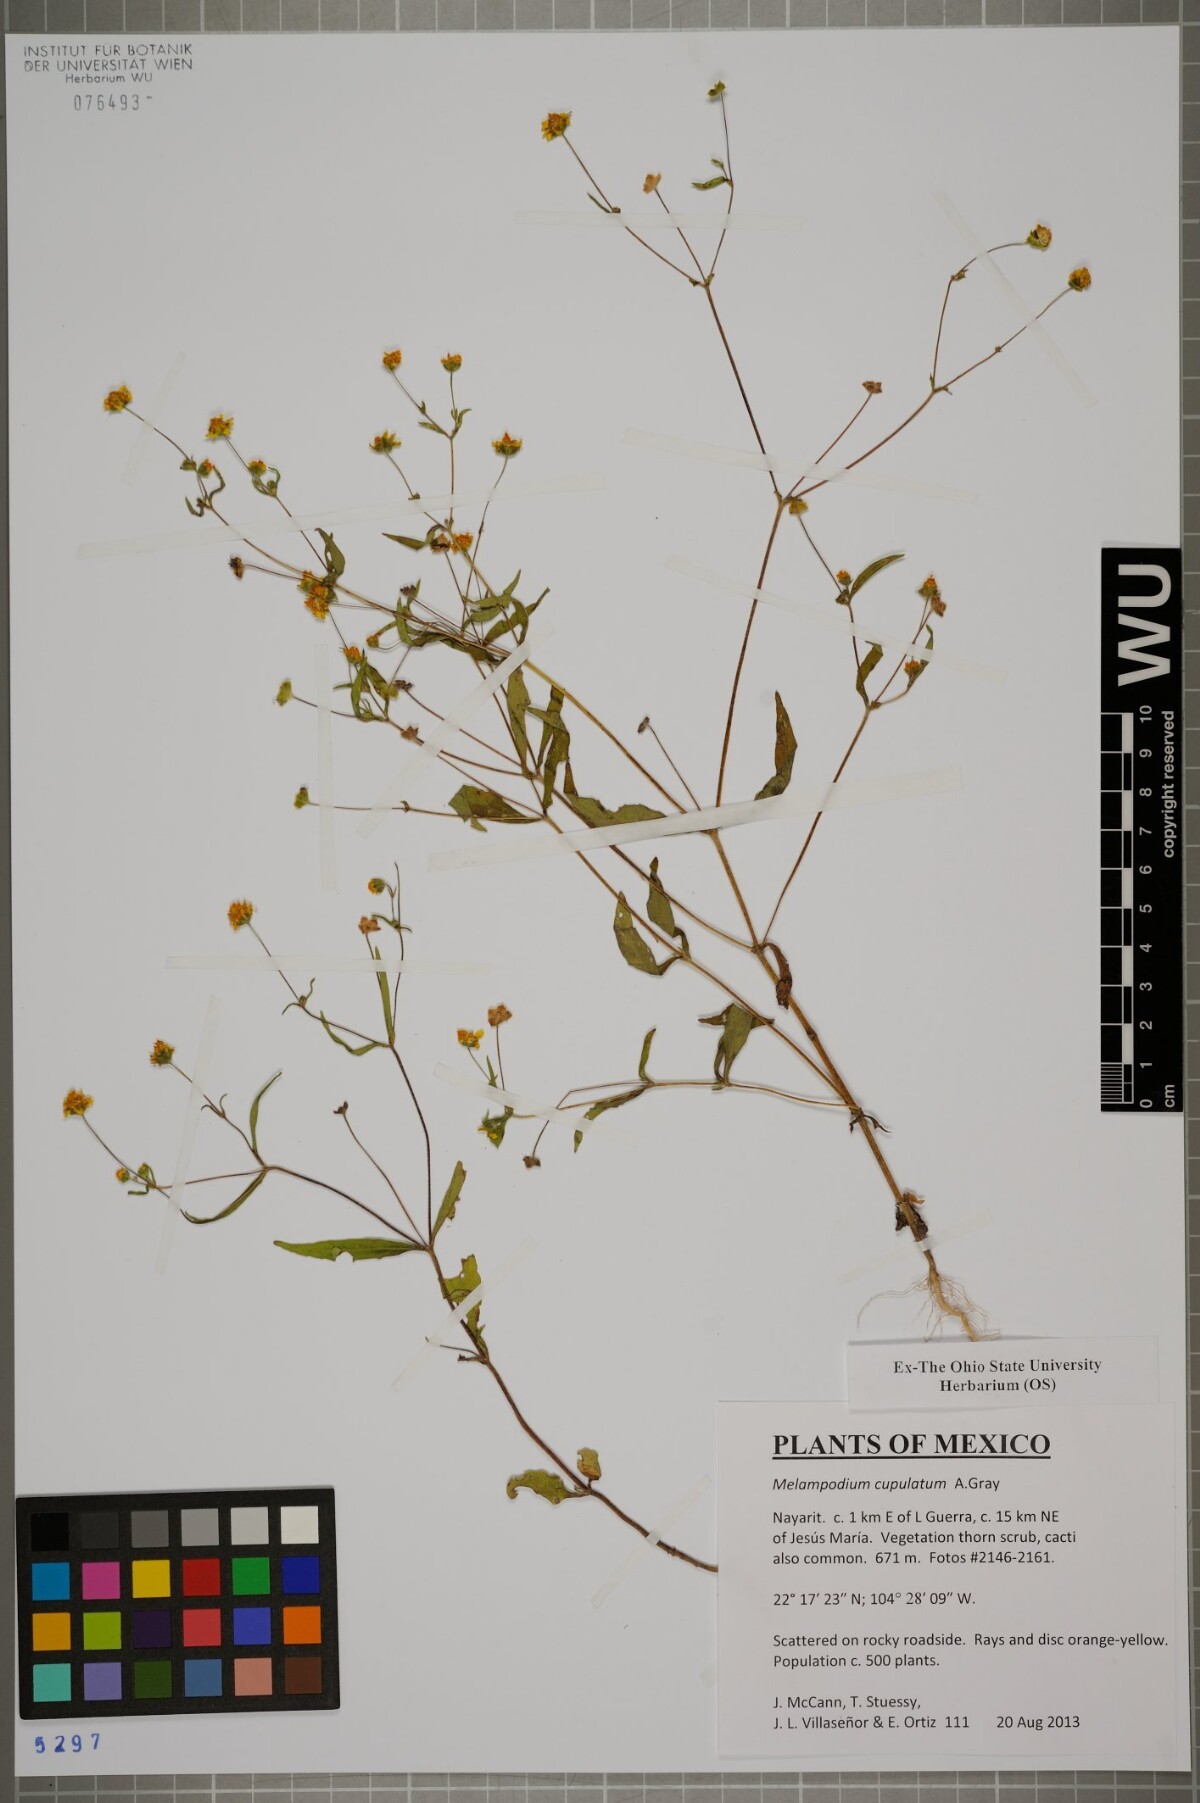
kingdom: Plantae
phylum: Tracheophyta
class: Magnoliopsida
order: Asterales
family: Asteraceae
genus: Melampodium
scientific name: Melampodium cupulatum
